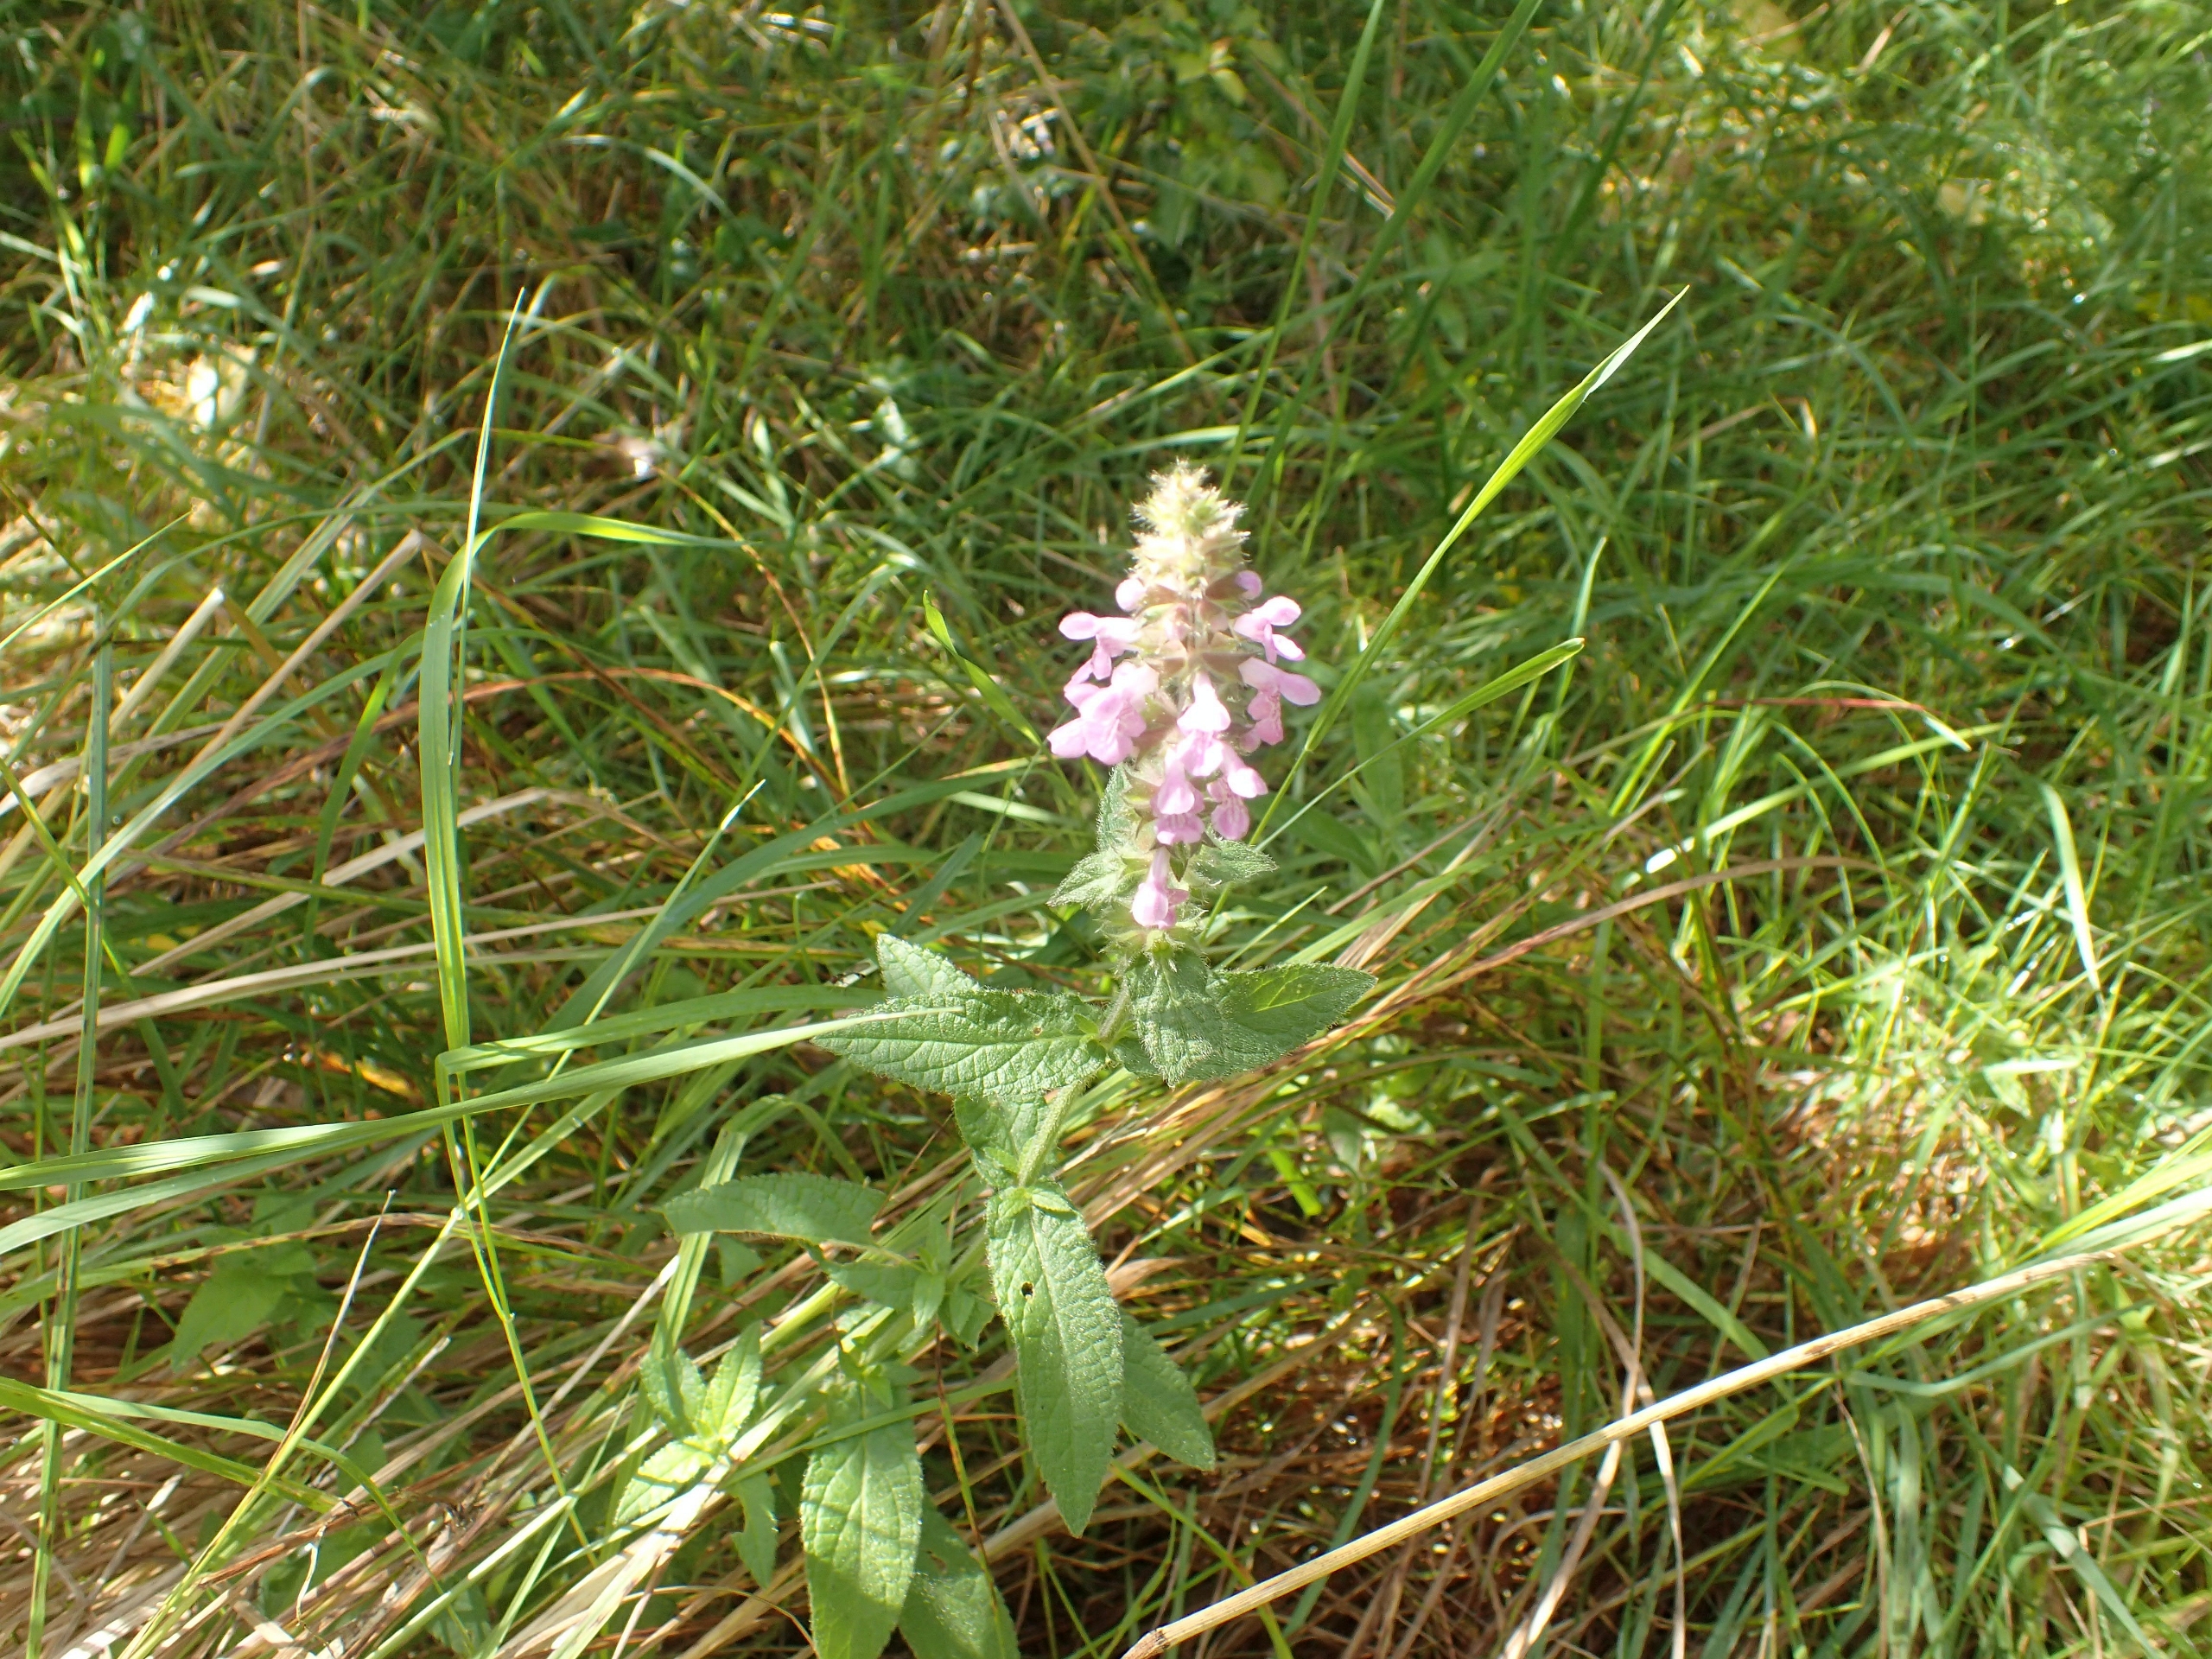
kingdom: Plantae
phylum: Tracheophyta
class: Magnoliopsida
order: Lamiales
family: Lamiaceae
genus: Stachys
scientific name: Stachys palustris
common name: Kær-galtetand
